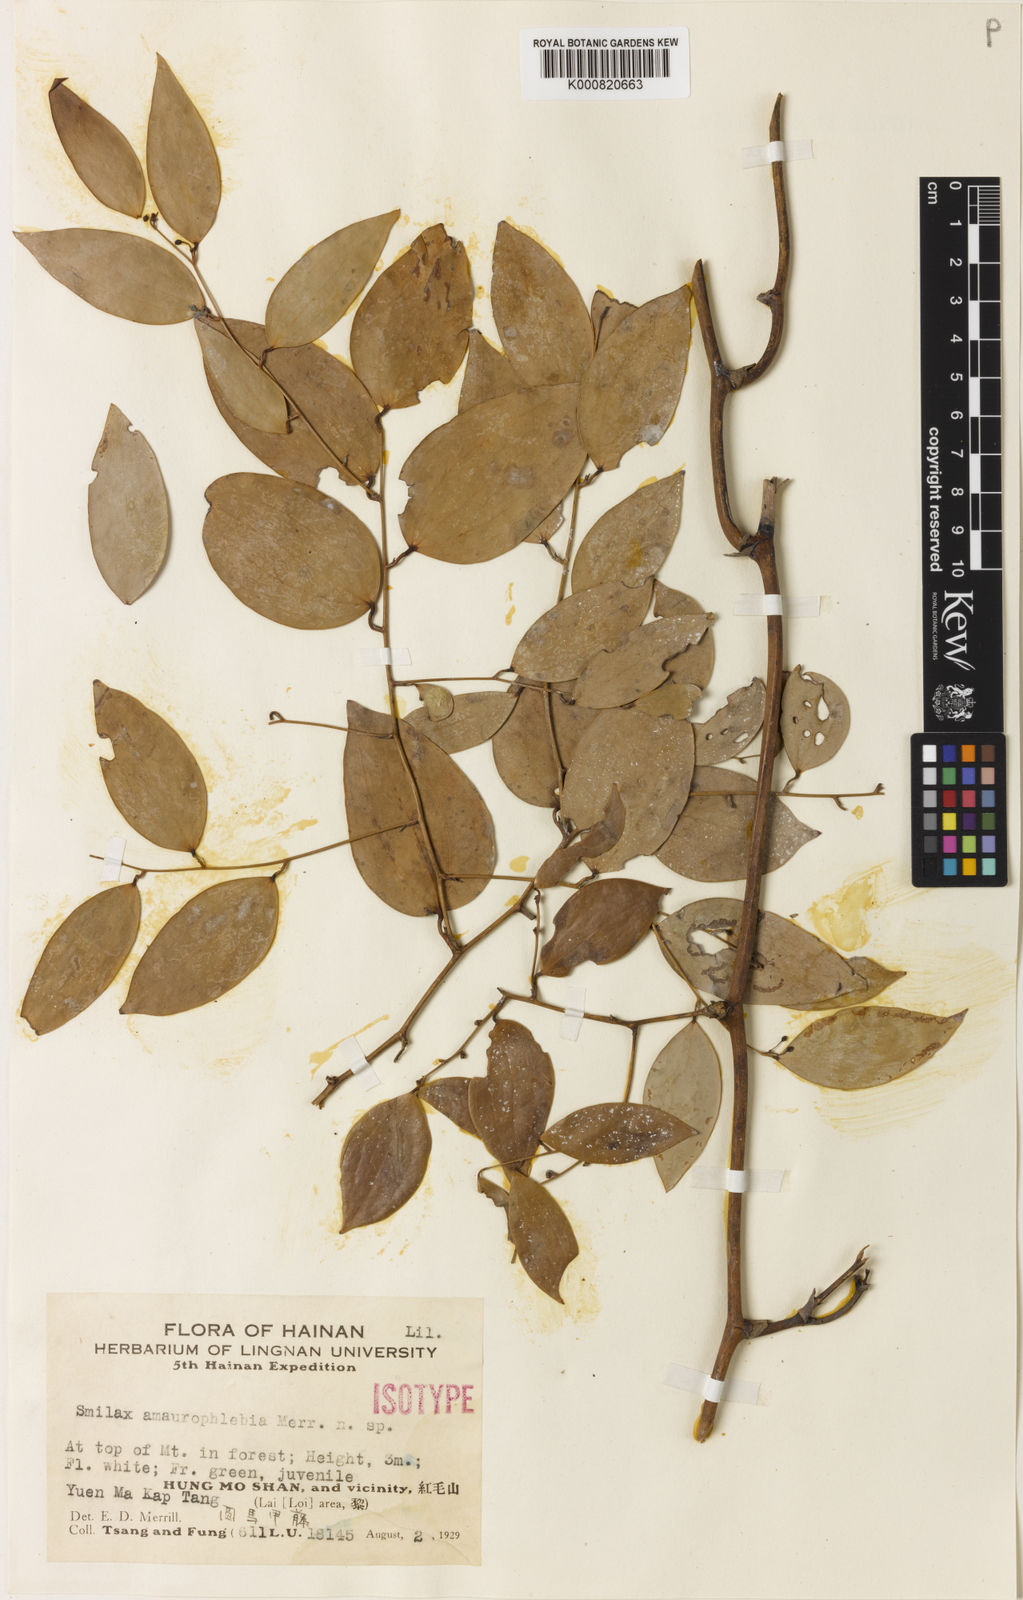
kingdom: Plantae
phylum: Tracheophyta
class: Liliopsida
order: Liliales
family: Smilacaceae
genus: Smilax
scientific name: Smilax corbularia
